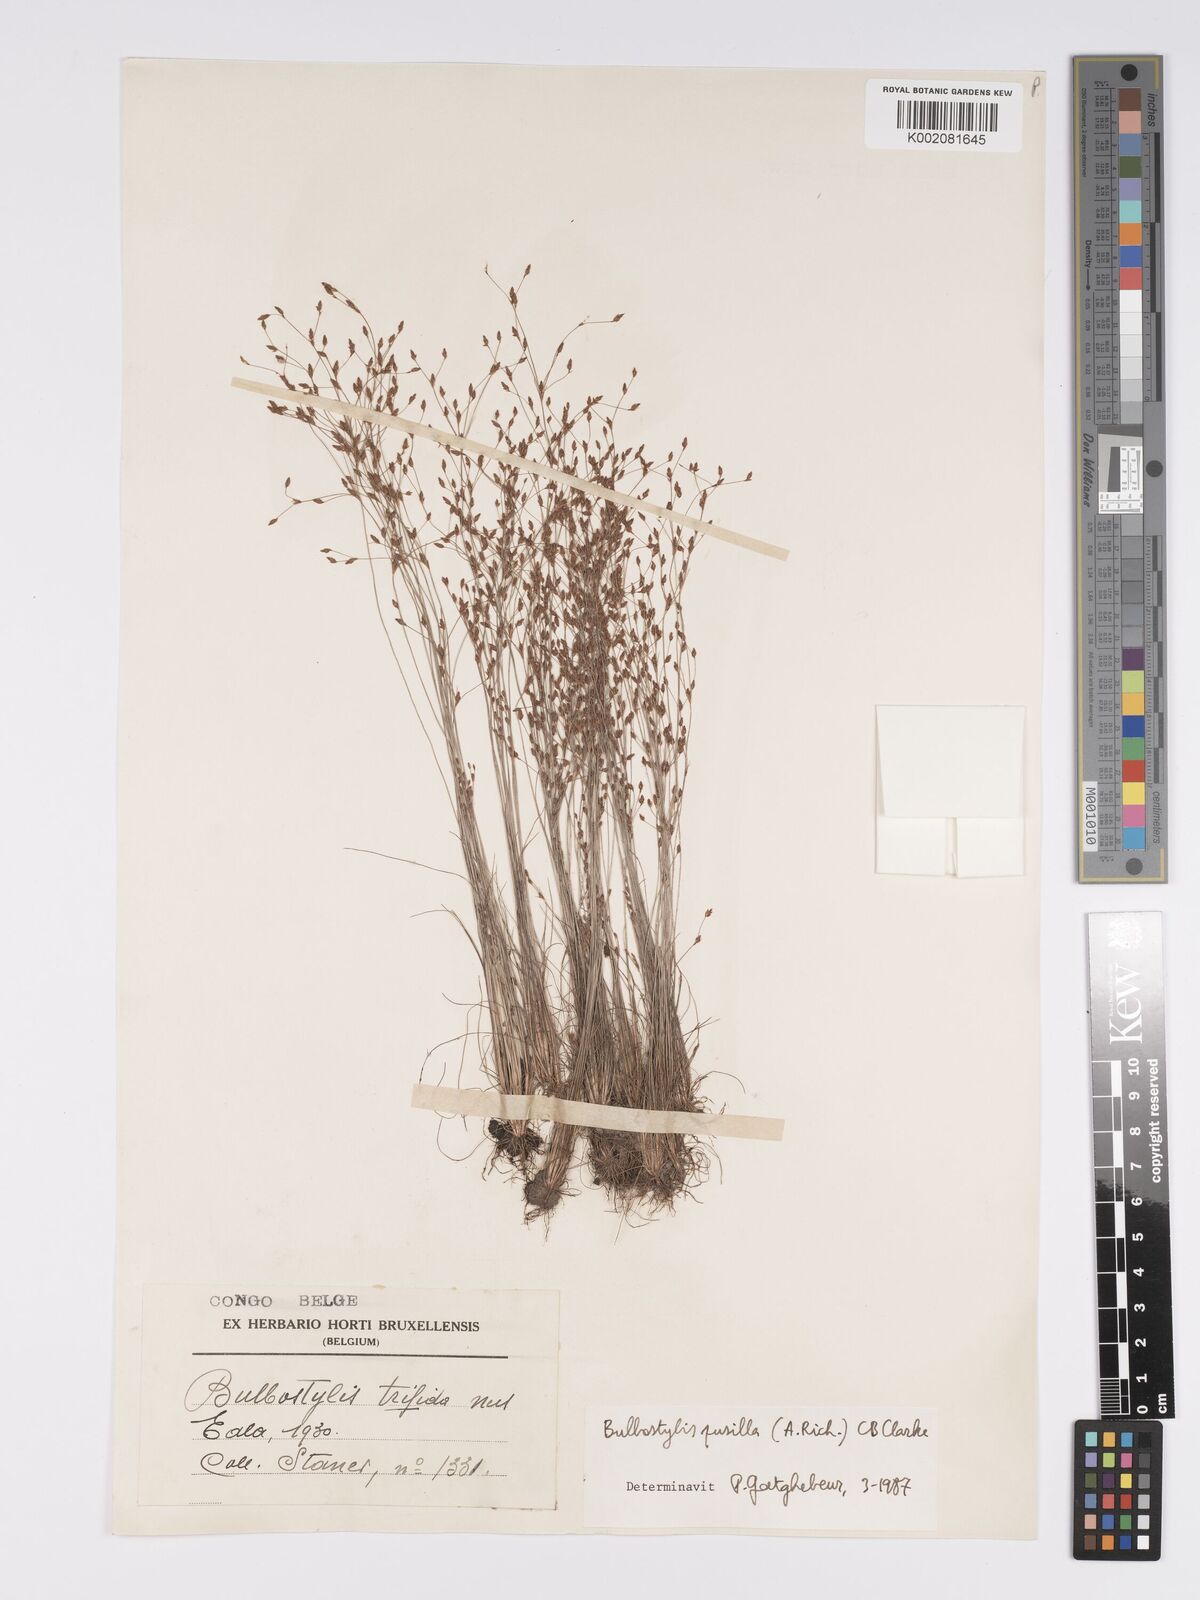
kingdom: Plantae
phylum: Tracheophyta
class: Liliopsida
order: Poales
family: Cyperaceae
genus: Bulbostylis
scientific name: Bulbostylis pusilla
